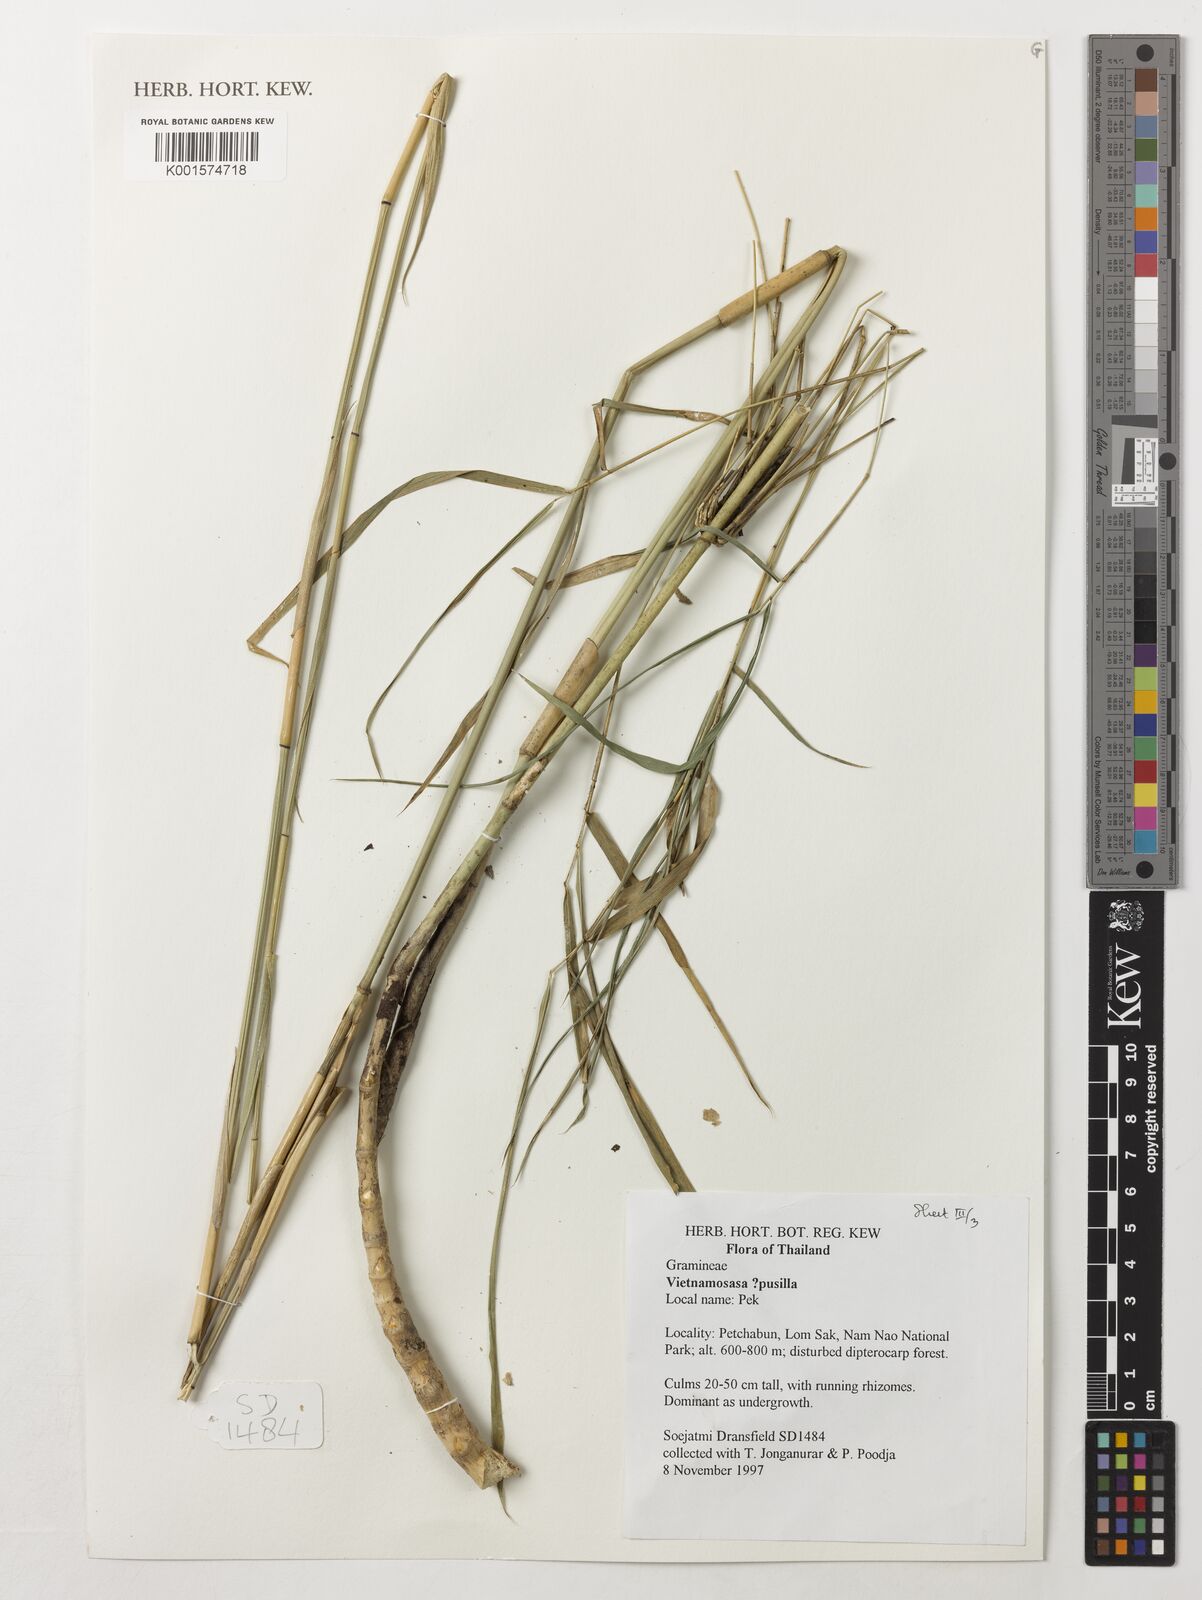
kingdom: Plantae
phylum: Tracheophyta
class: Liliopsida
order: Poales
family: Poaceae
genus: Vietnamosasa
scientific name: Vietnamosasa pusilla
